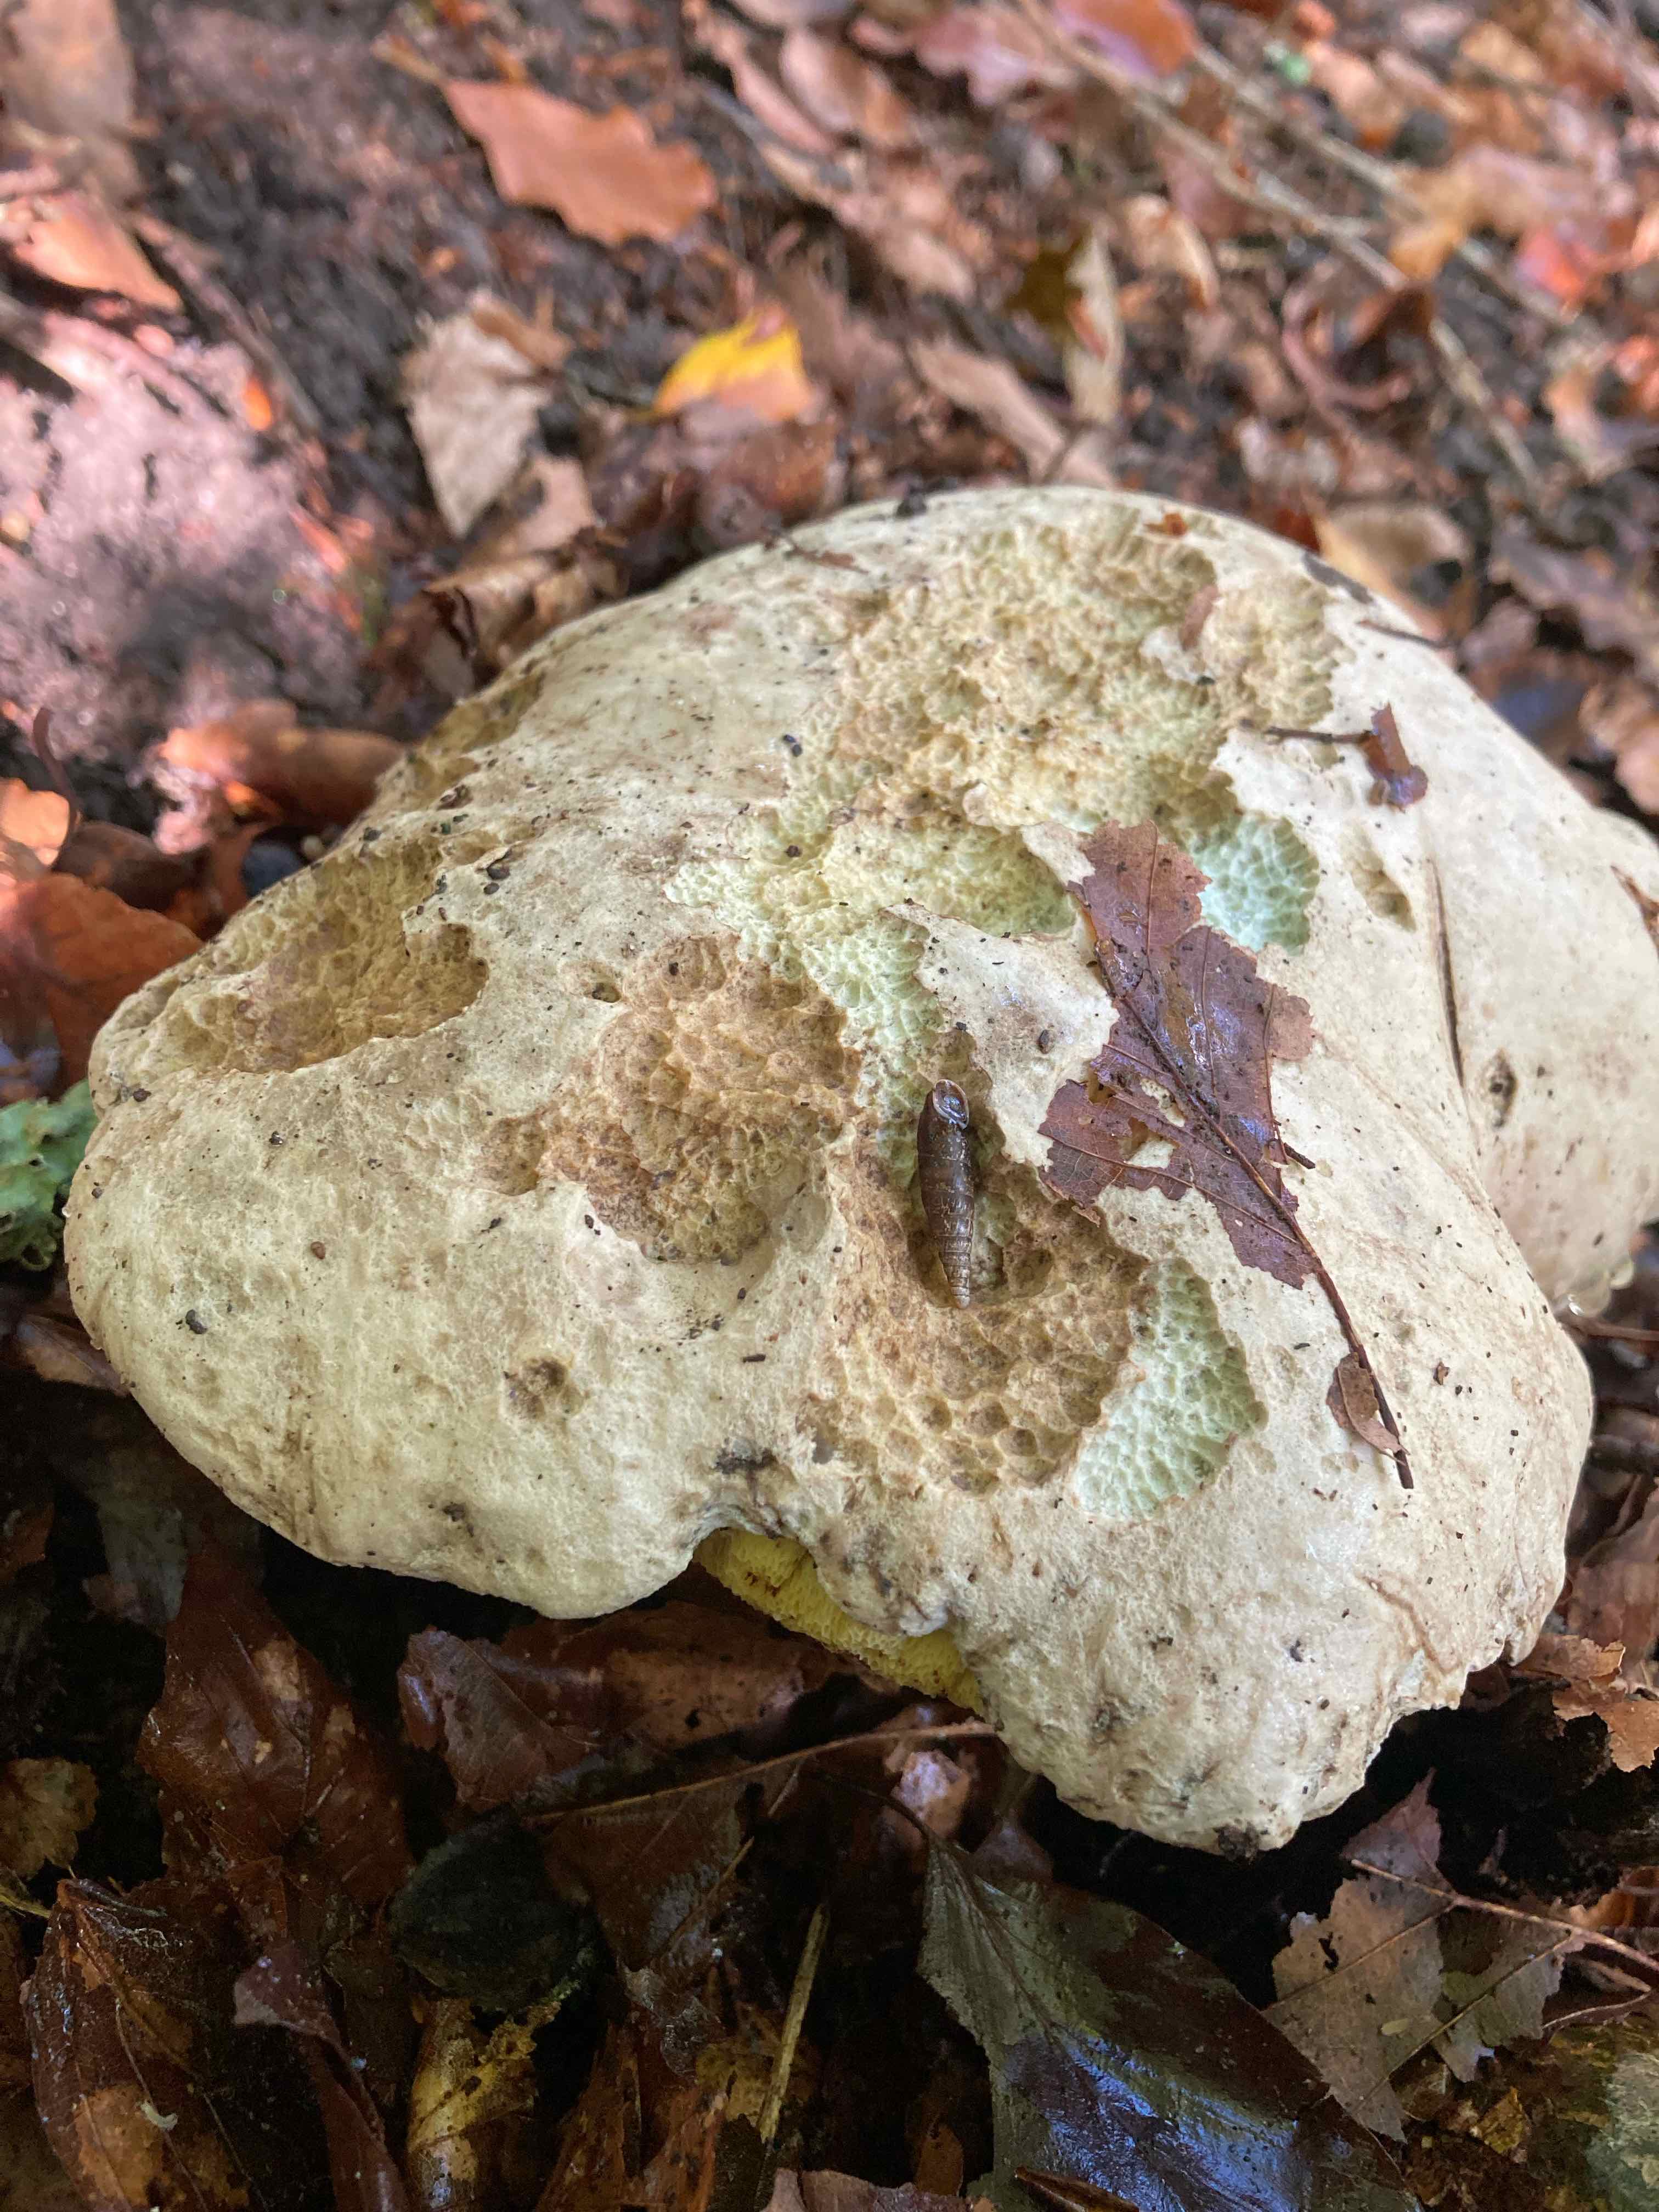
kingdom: Fungi
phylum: Basidiomycota
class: Agaricomycetes
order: Boletales
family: Boletaceae
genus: Caloboletus
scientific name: Caloboletus radicans
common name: rod-rørhat
